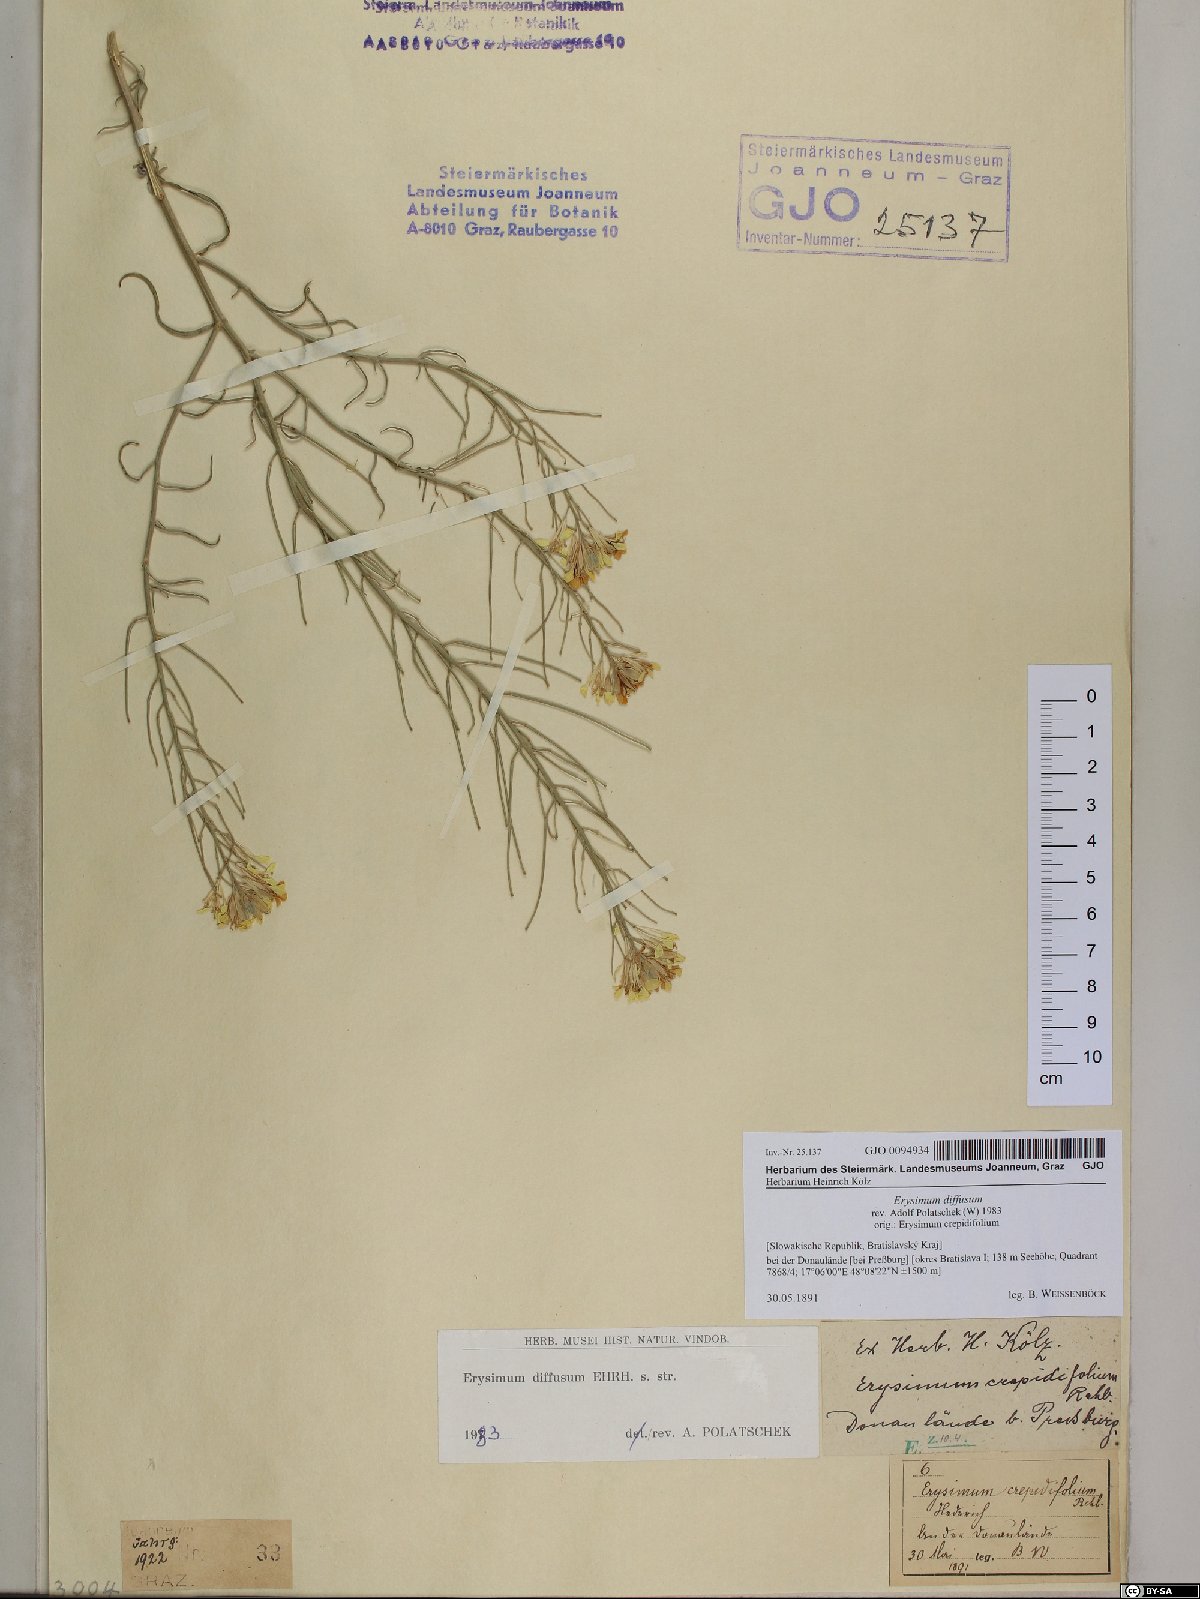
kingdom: Plantae
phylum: Tracheophyta
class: Magnoliopsida
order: Brassicales
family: Brassicaceae
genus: Erysimum
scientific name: Erysimum diffusum
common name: Diffuse wallflower
